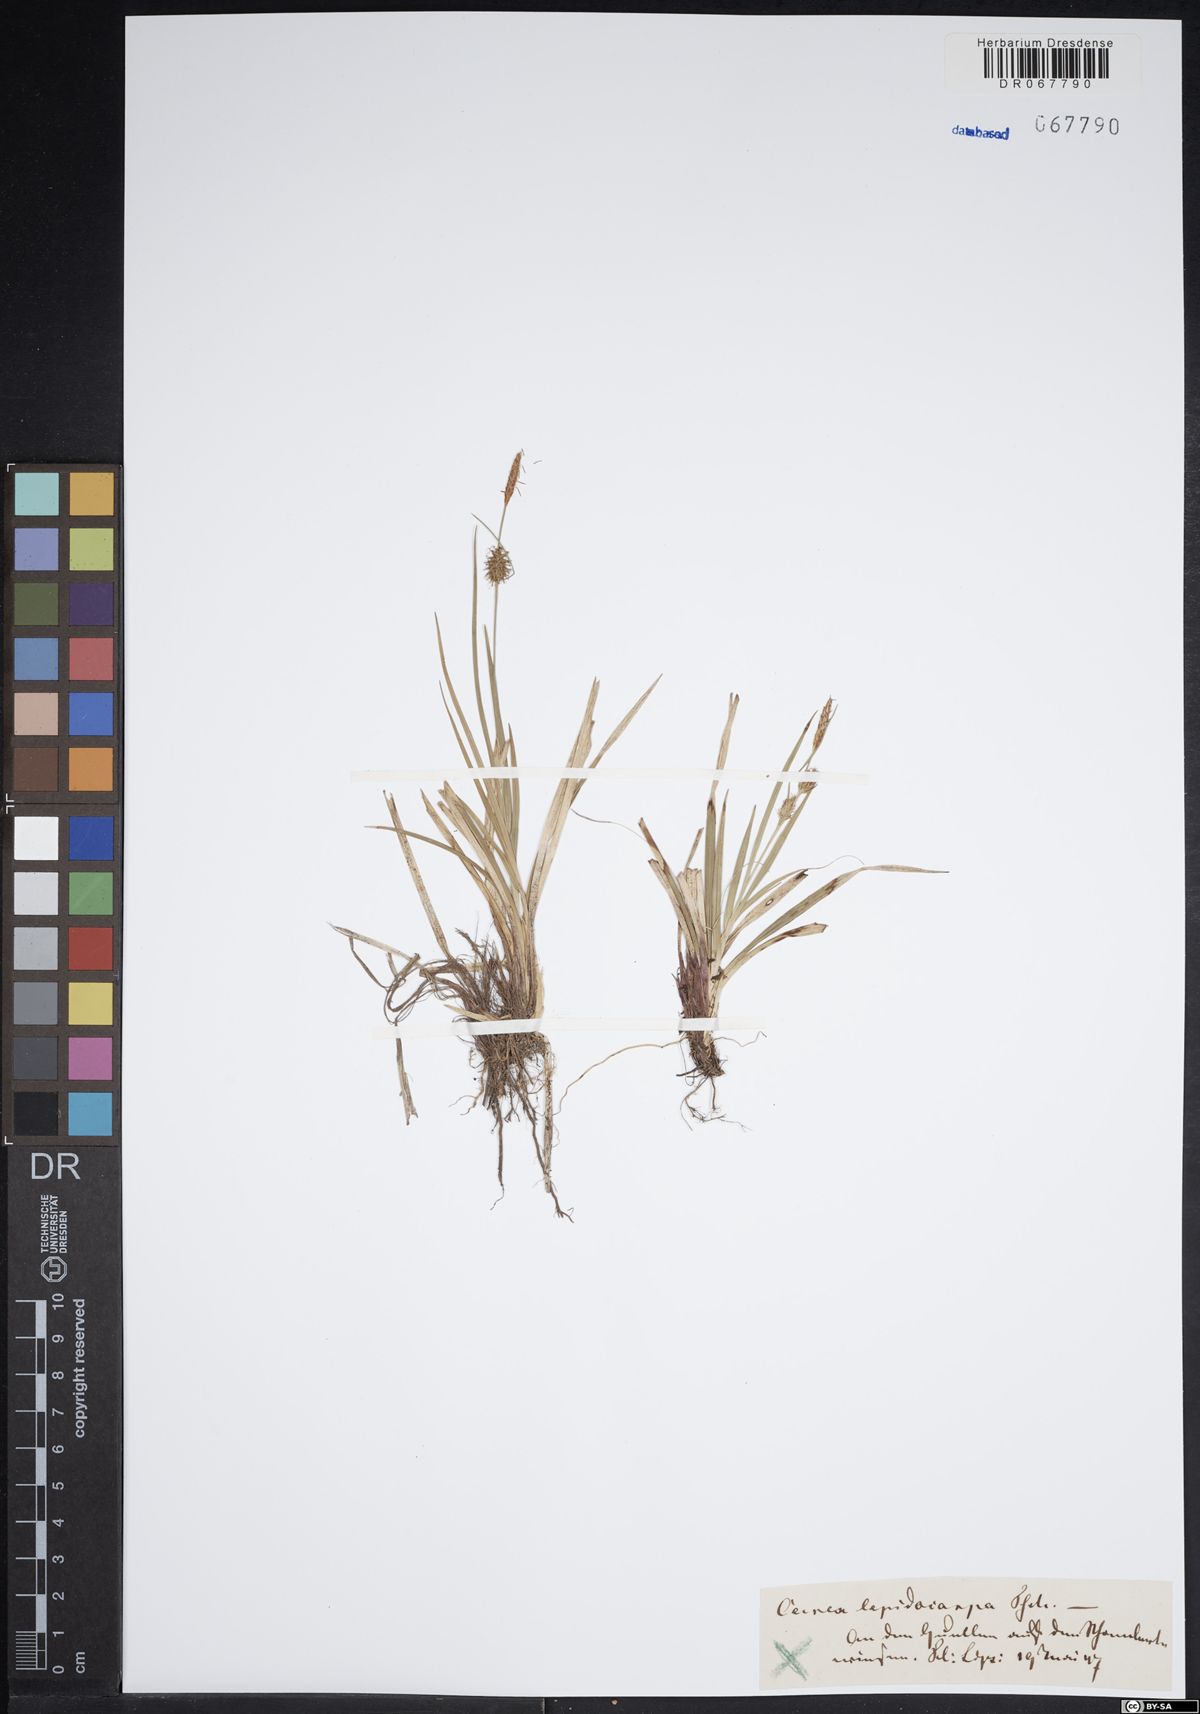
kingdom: Plantae
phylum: Tracheophyta
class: Liliopsida
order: Poales
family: Cyperaceae
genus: Carex
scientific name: Carex lepidocarpa
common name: Long-stalked yellow-sedge
